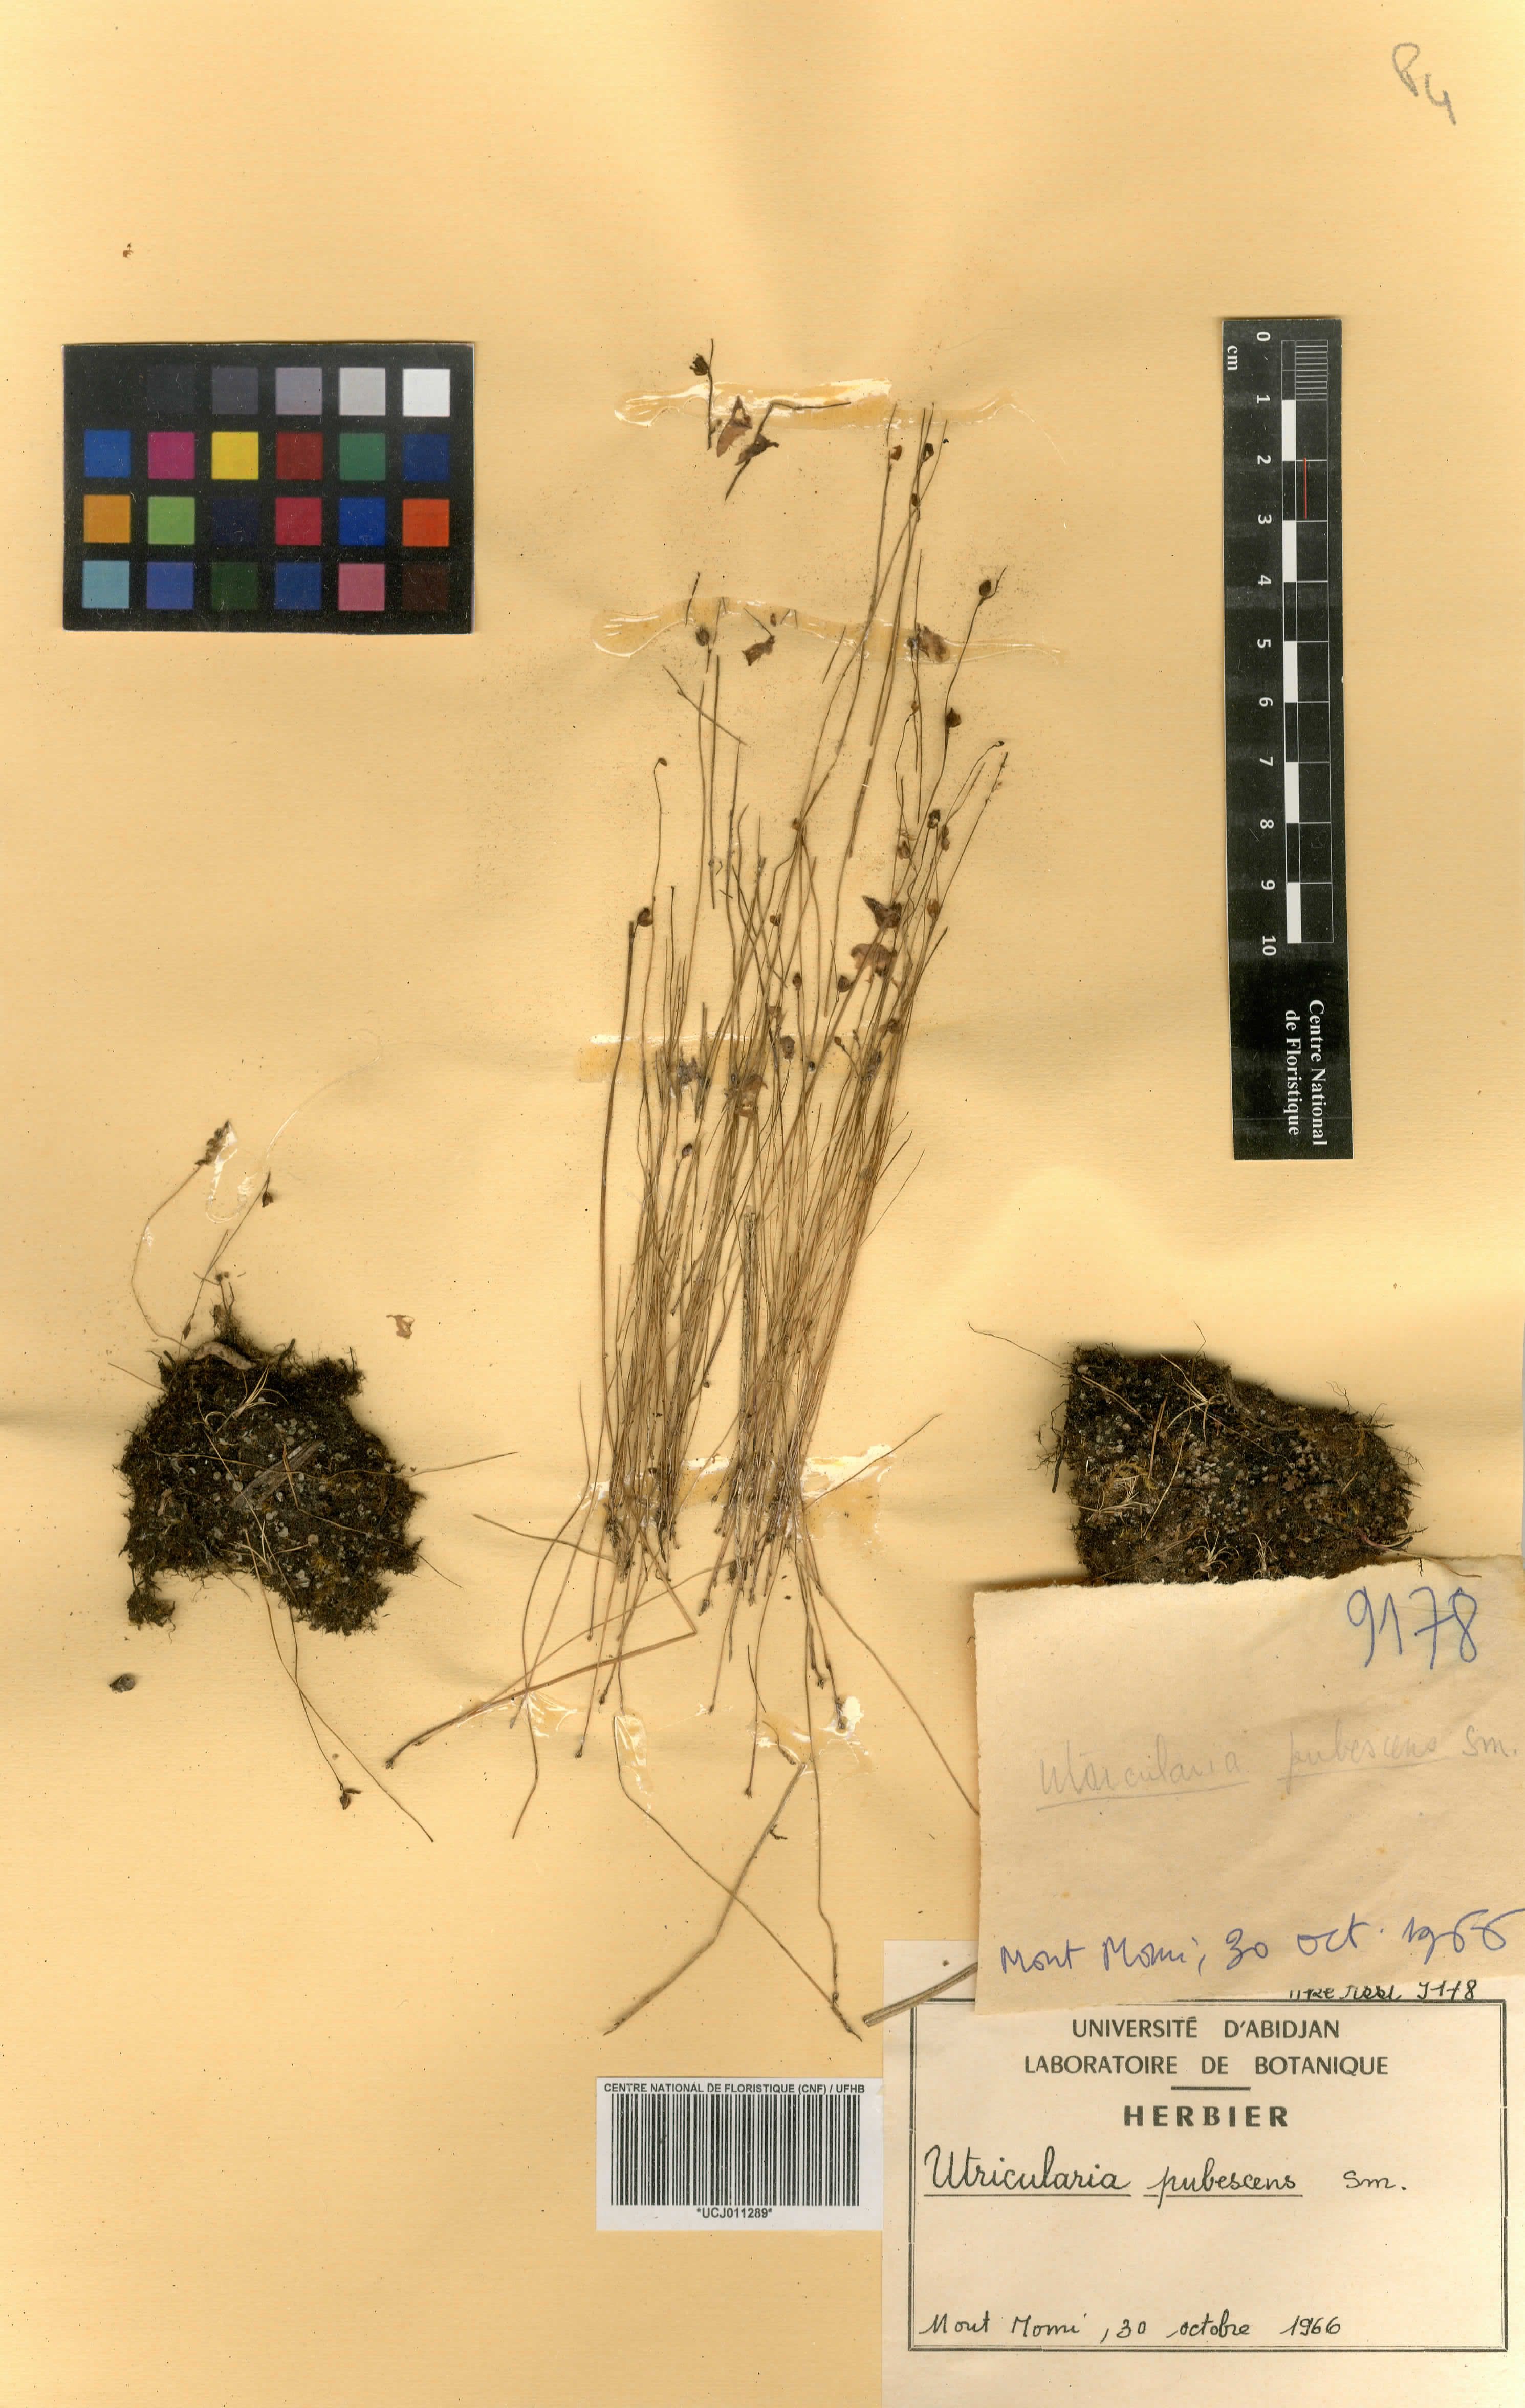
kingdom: Plantae
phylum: Tracheophyta
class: Magnoliopsida
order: Lamiales
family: Lentibulariaceae
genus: Utricularia
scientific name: Utricularia reflexa
